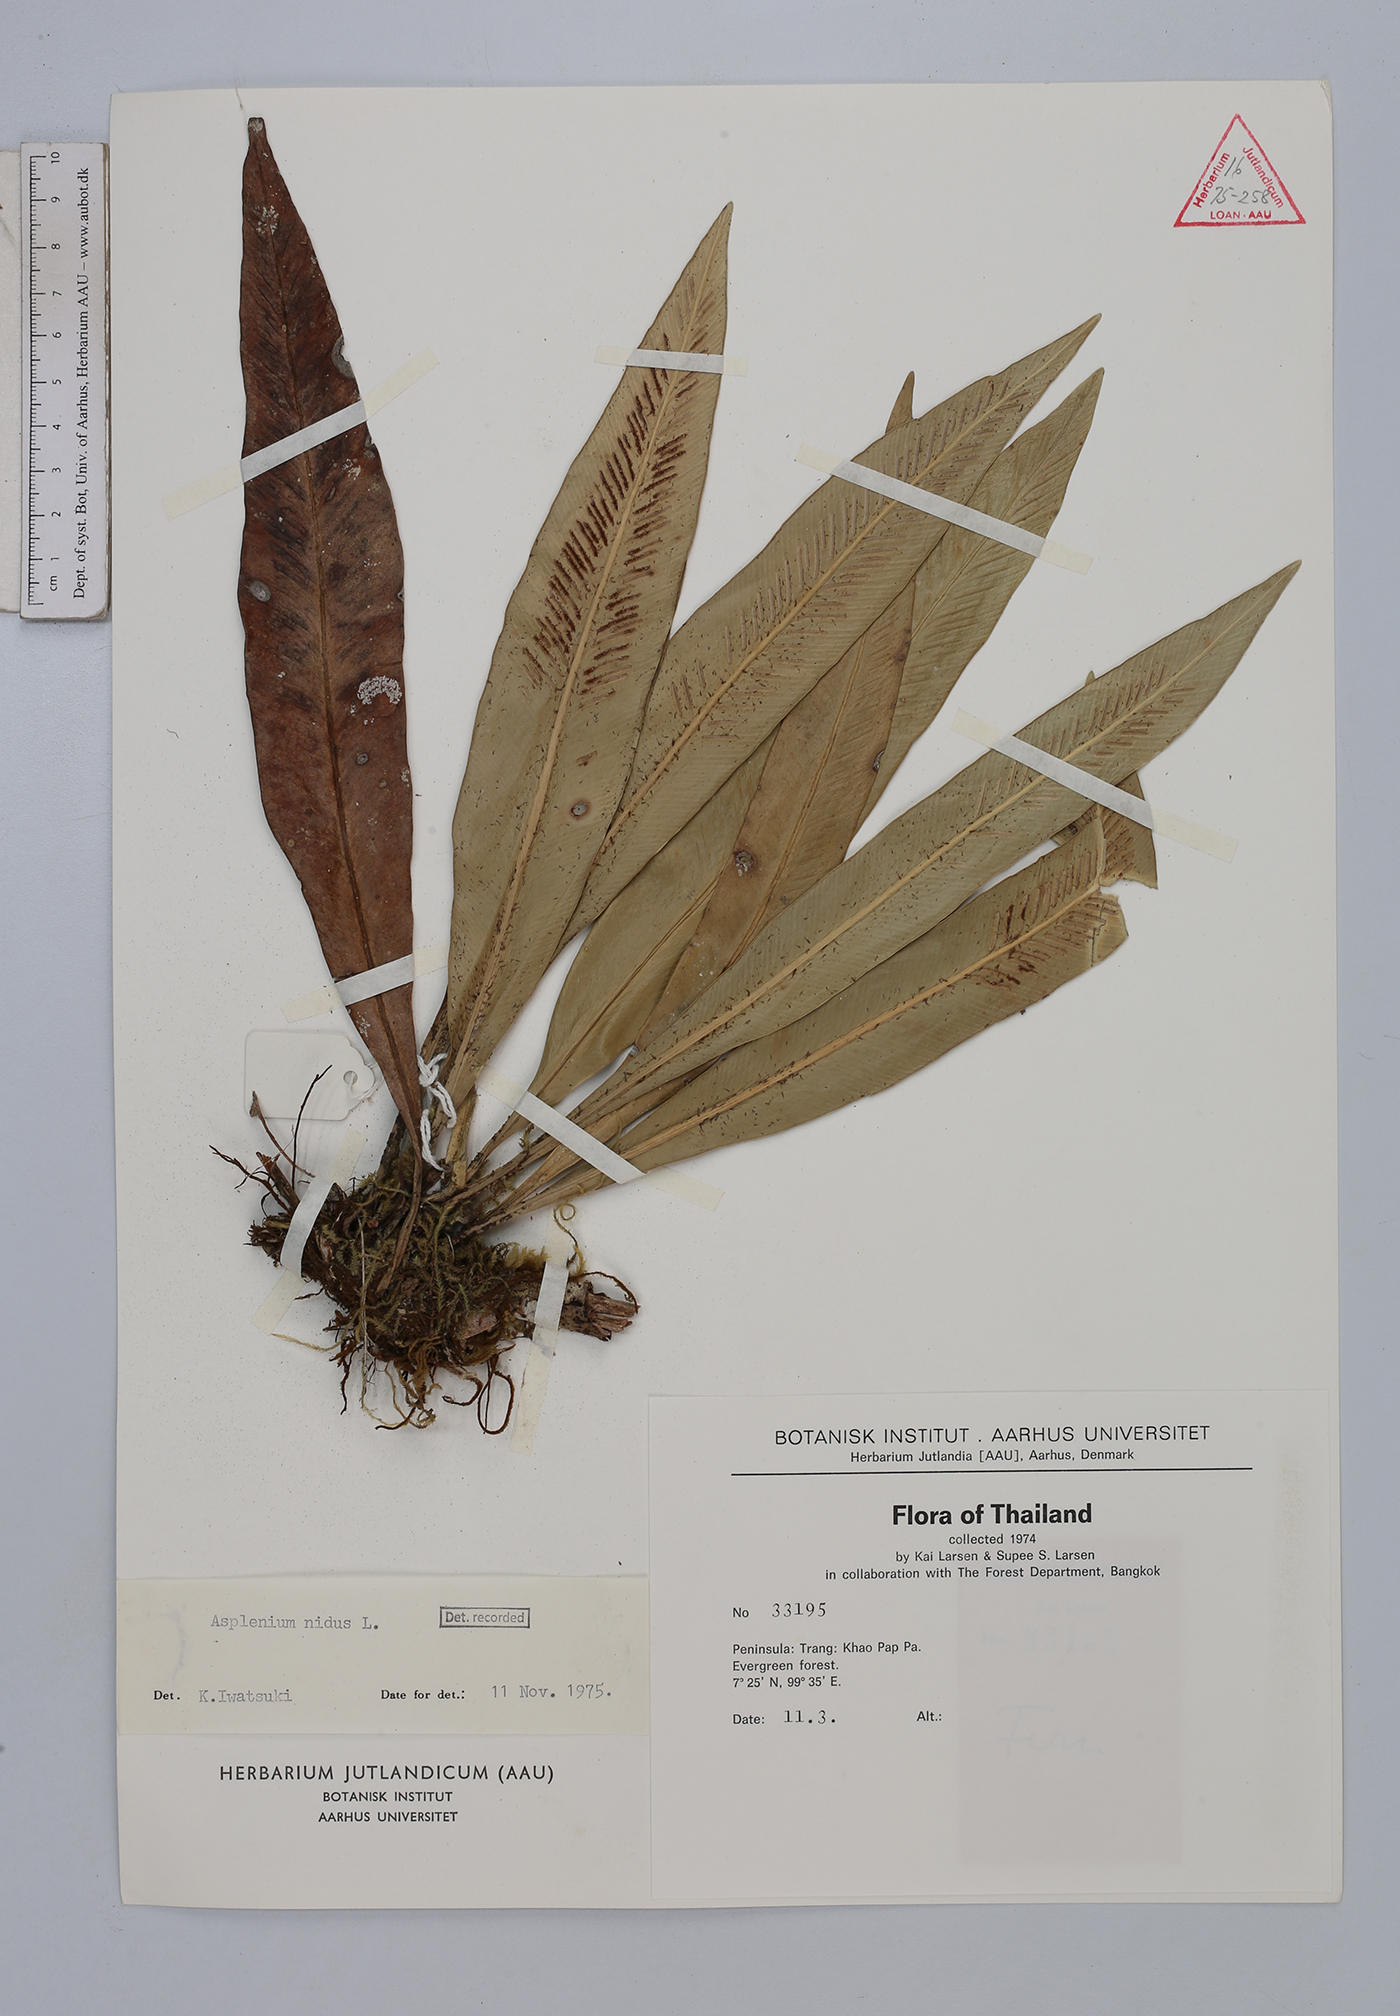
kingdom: Plantae
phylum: Tracheophyta
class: Polypodiopsida
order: Polypodiales
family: Aspleniaceae
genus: Asplenium
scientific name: Asplenium nidus
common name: Bird's-nest fern
